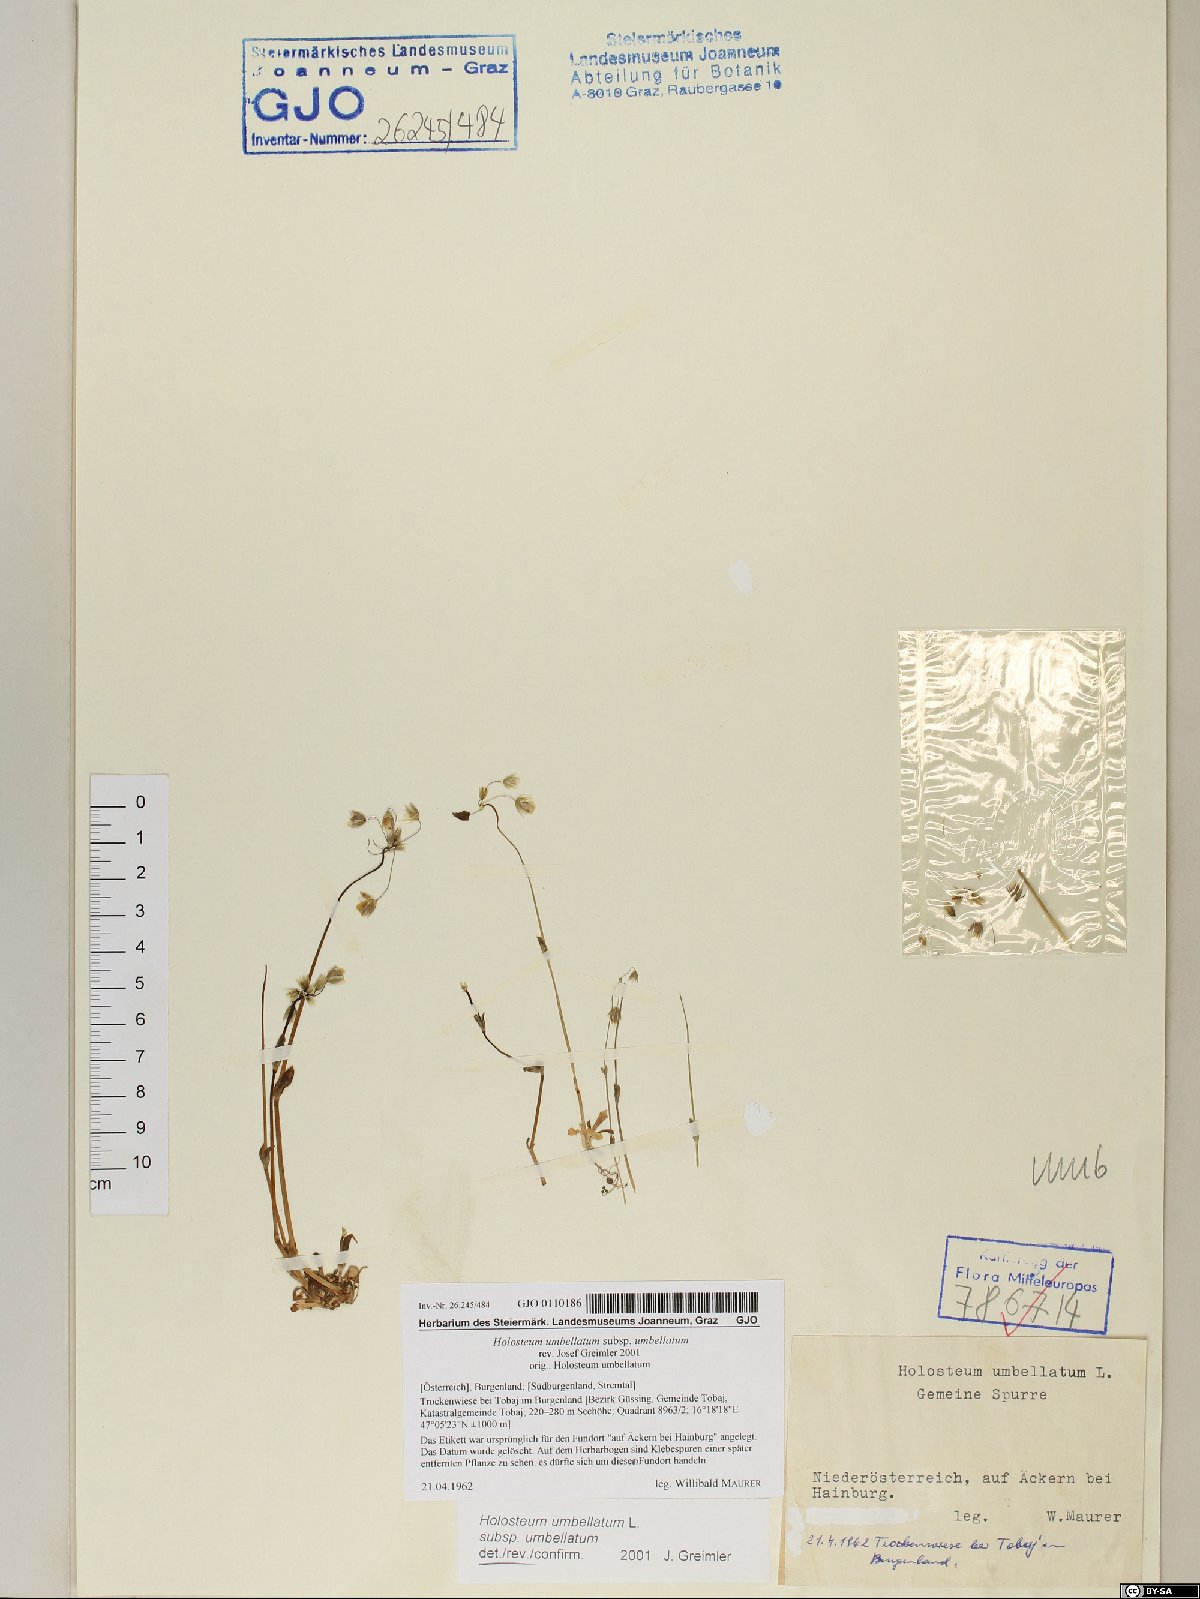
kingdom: Plantae
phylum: Tracheophyta
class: Magnoliopsida
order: Caryophyllales
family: Caryophyllaceae
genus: Holosteum
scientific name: Holosteum umbellatum
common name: Jagged chickweed
